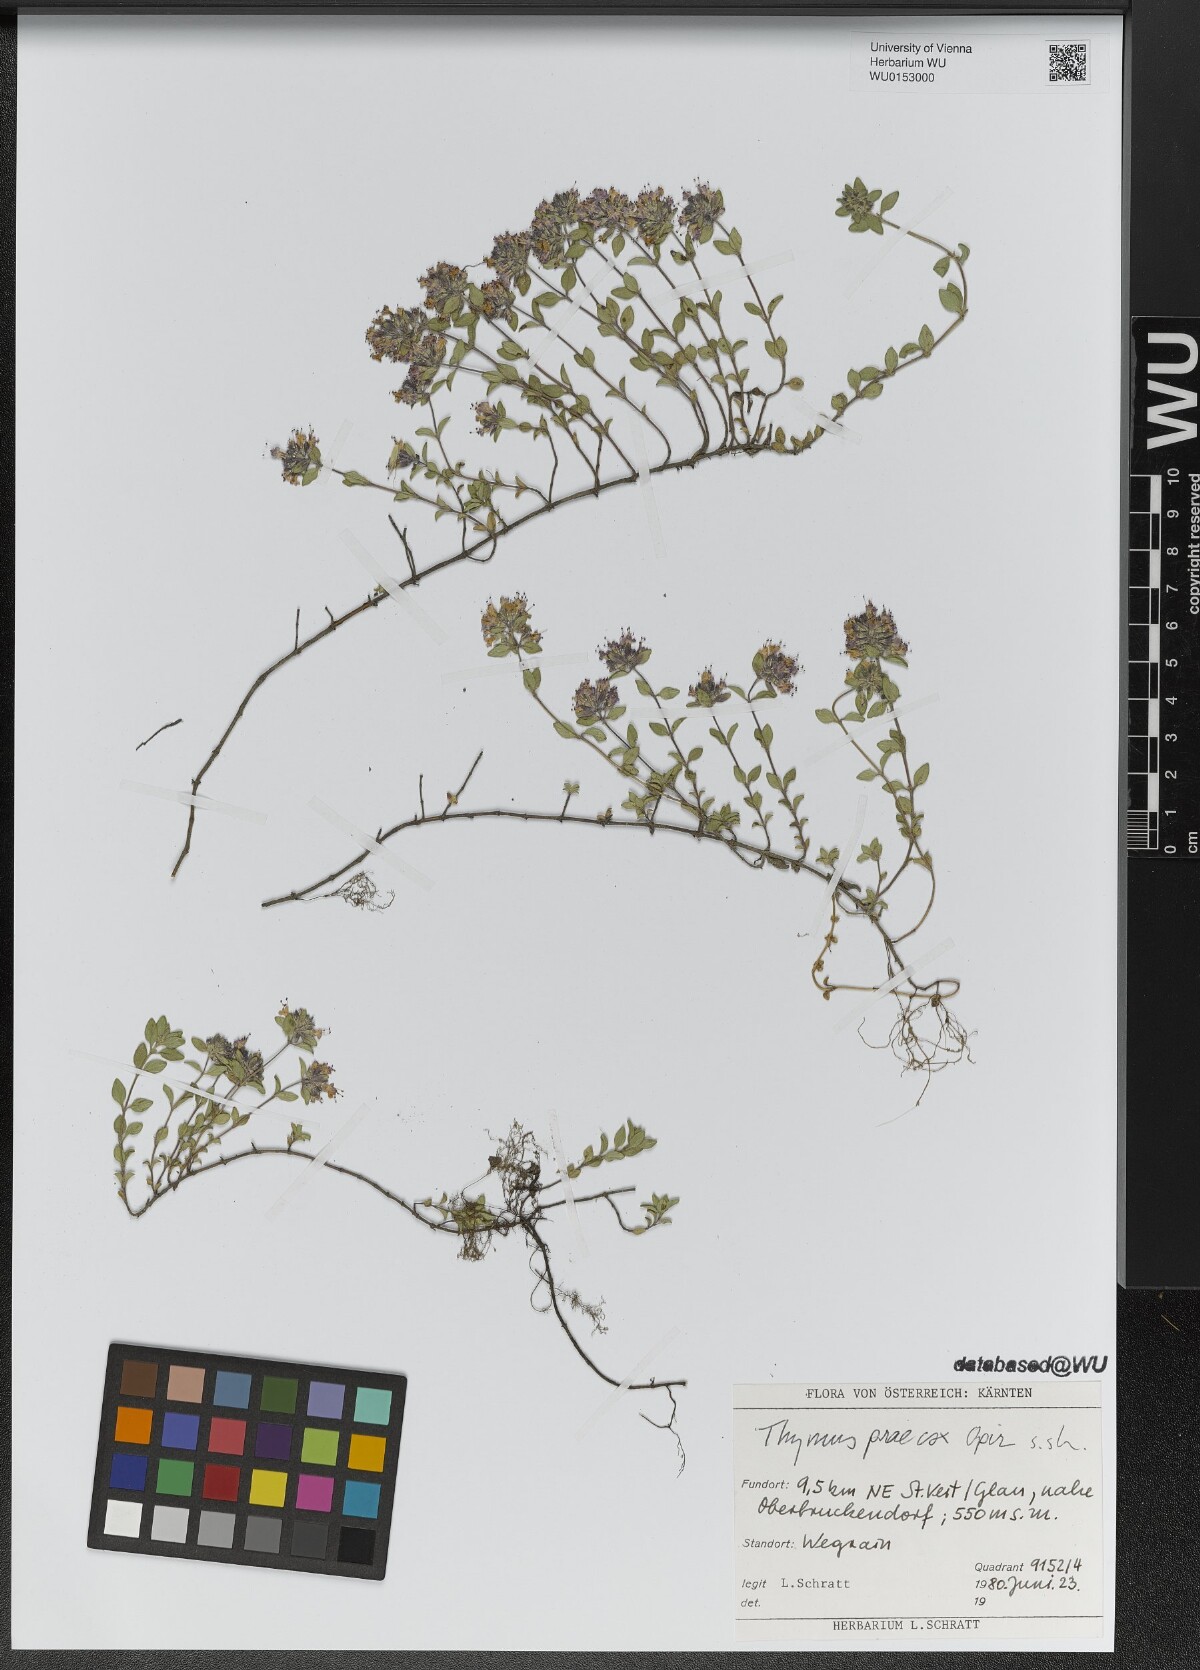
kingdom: Plantae
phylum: Tracheophyta
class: Magnoliopsida
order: Lamiales
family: Lamiaceae
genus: Thymus
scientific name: Thymus praecox
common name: Wild thyme
